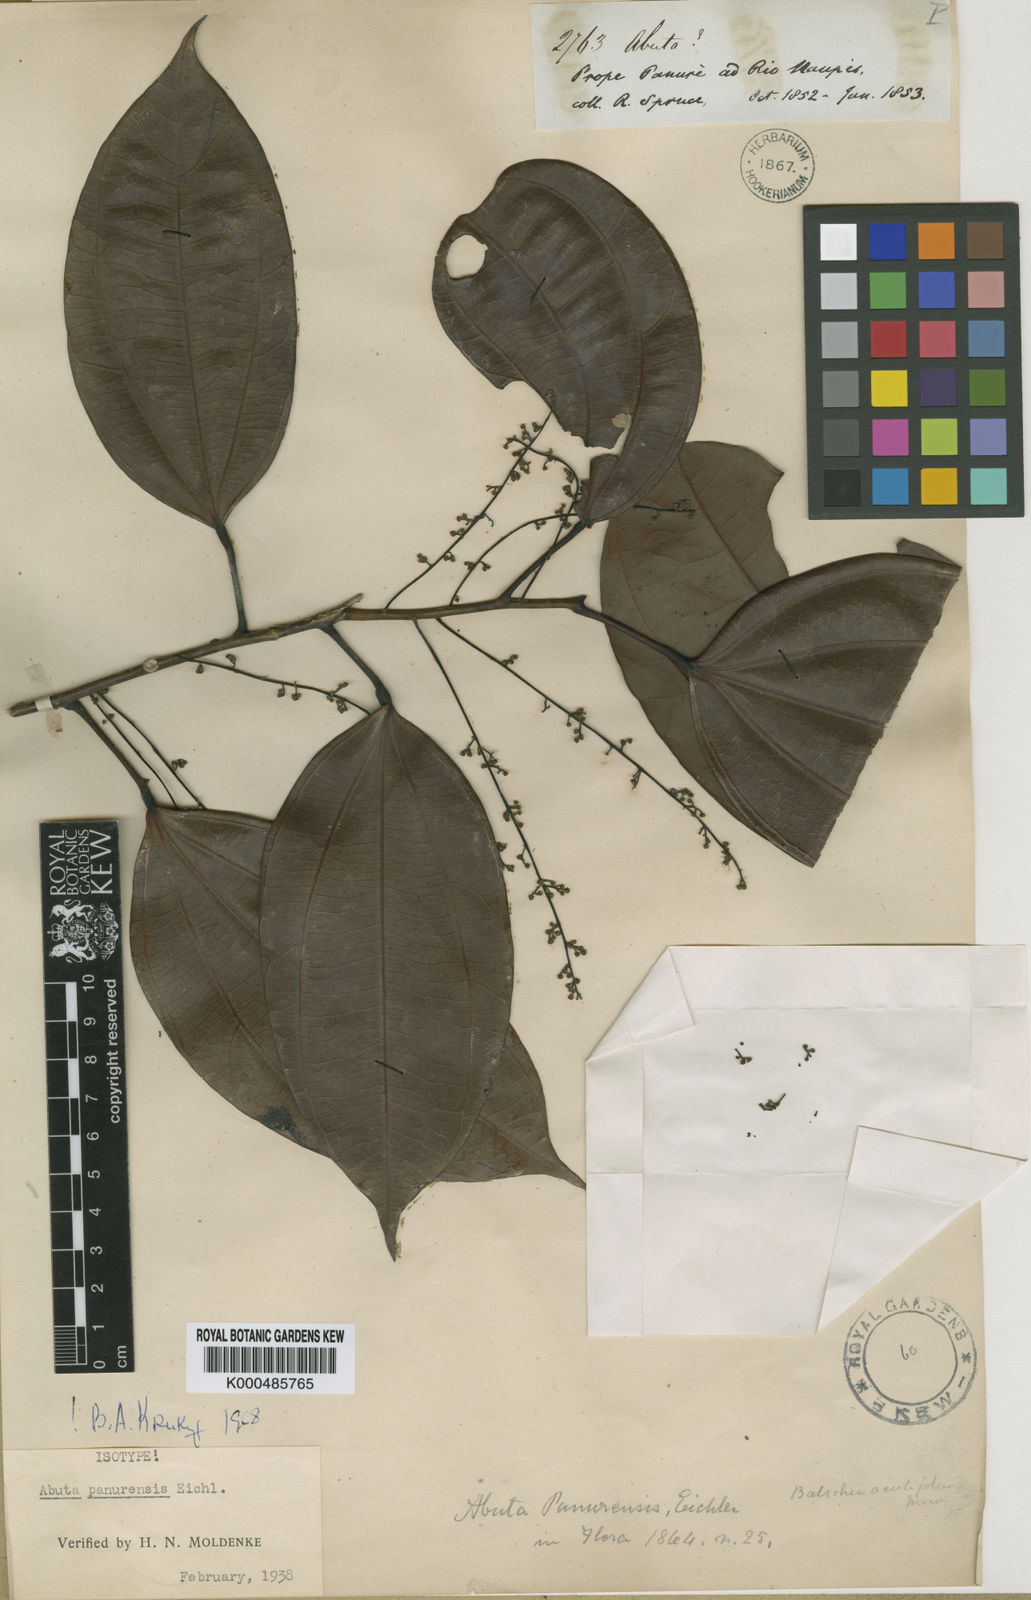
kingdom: Plantae
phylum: Tracheophyta
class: Magnoliopsida
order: Ranunculales
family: Menispermaceae
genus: Abuta
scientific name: Abuta panurensis
